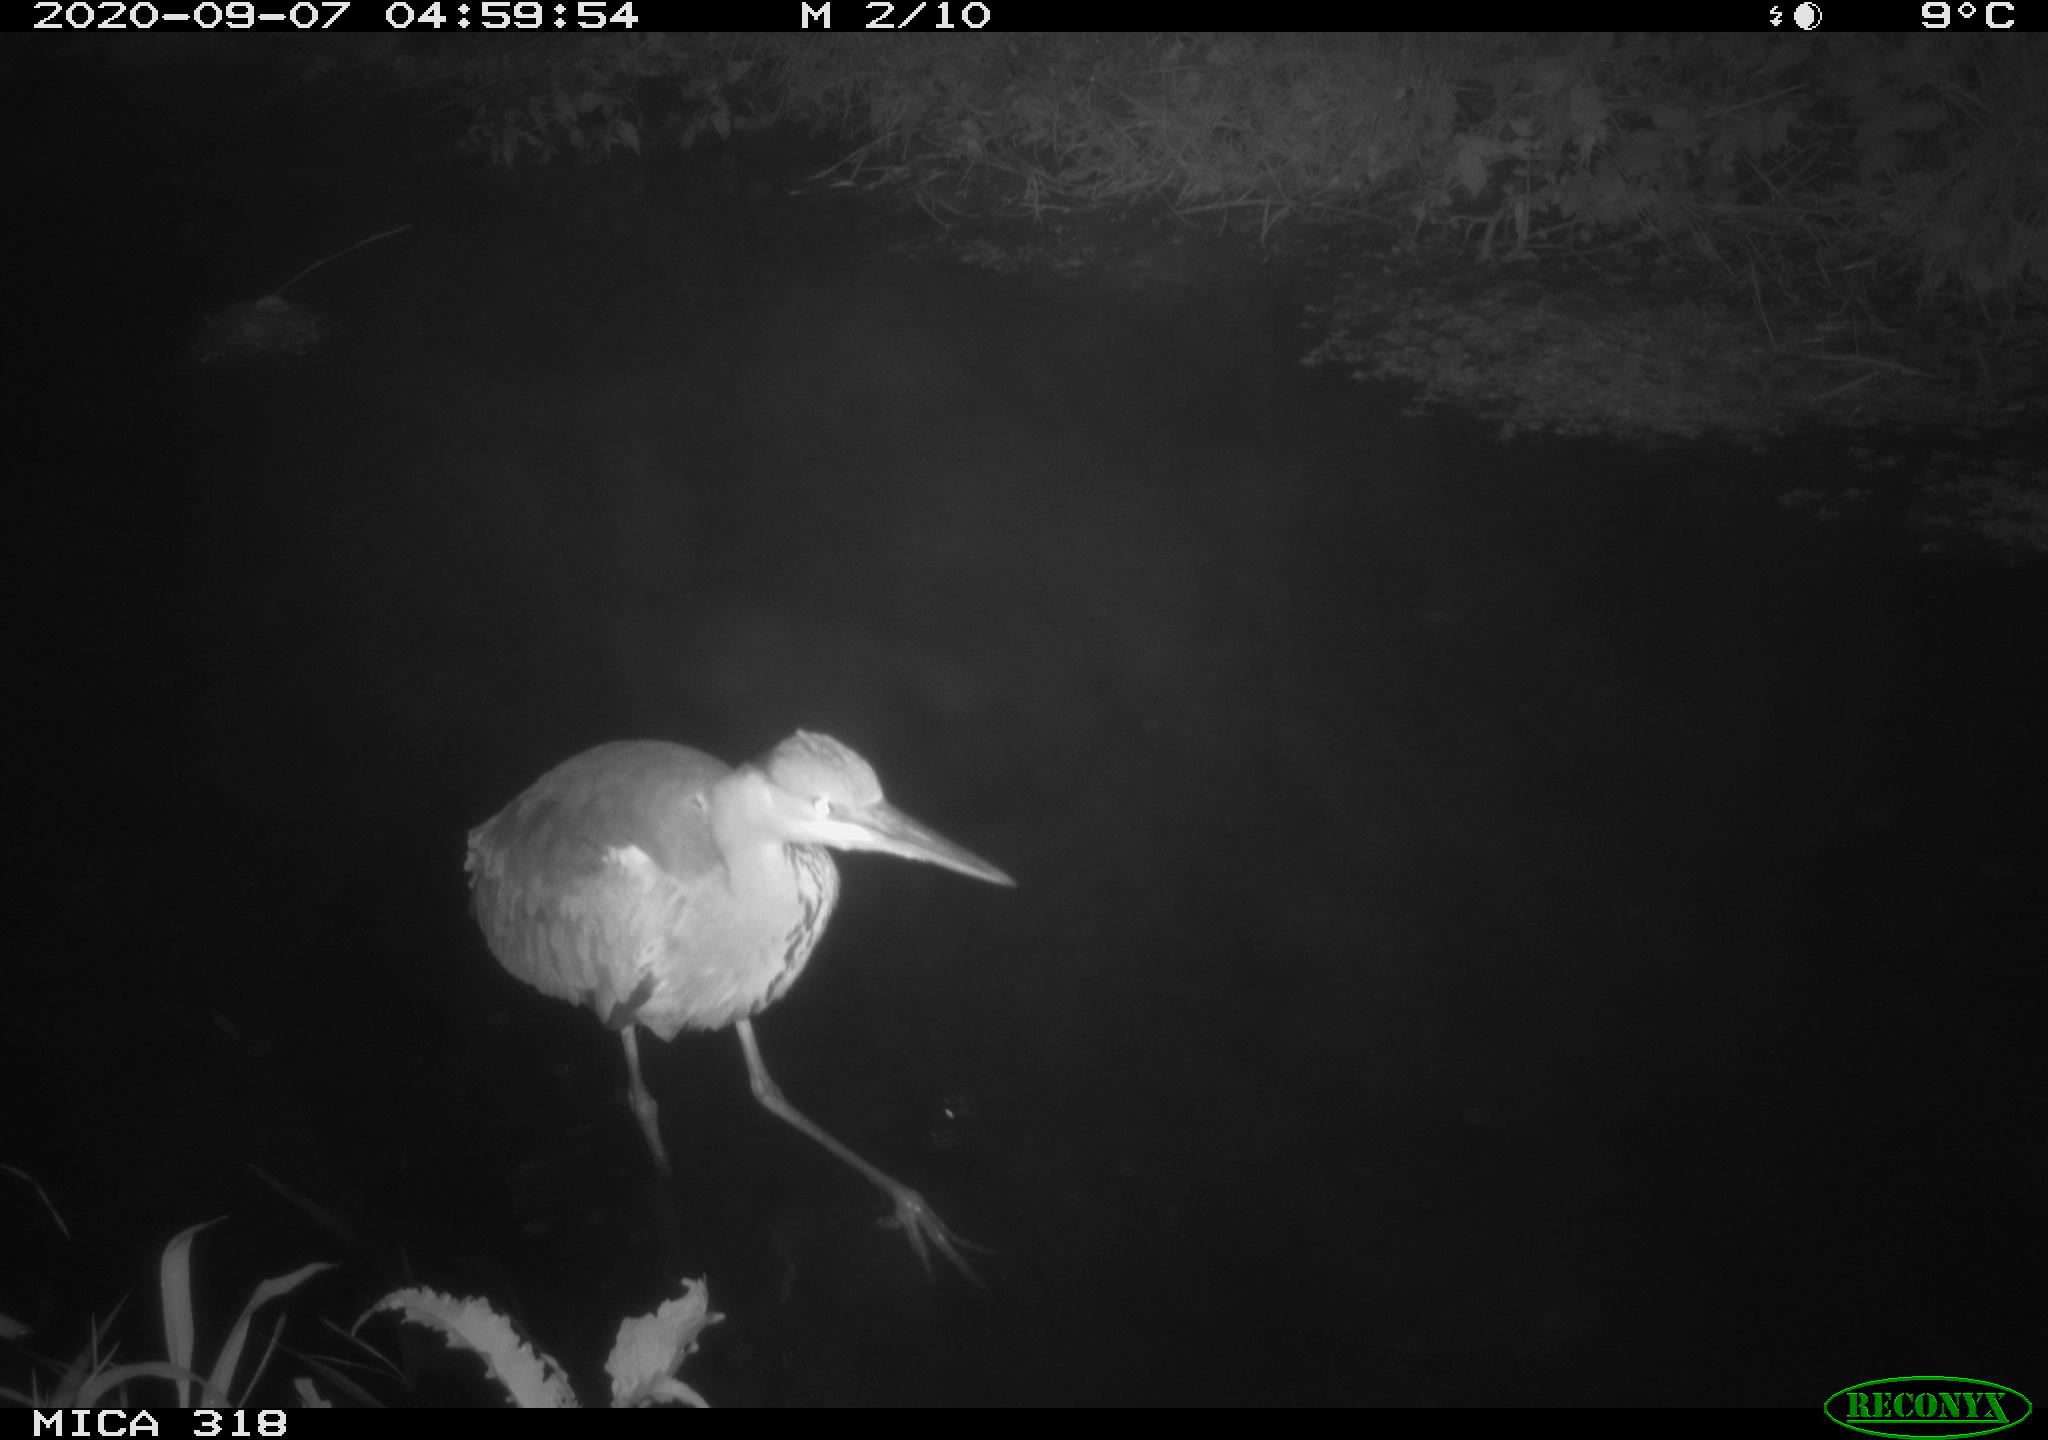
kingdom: Animalia
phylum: Chordata
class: Aves
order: Pelecaniformes
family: Ardeidae
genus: Ardea
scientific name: Ardea
